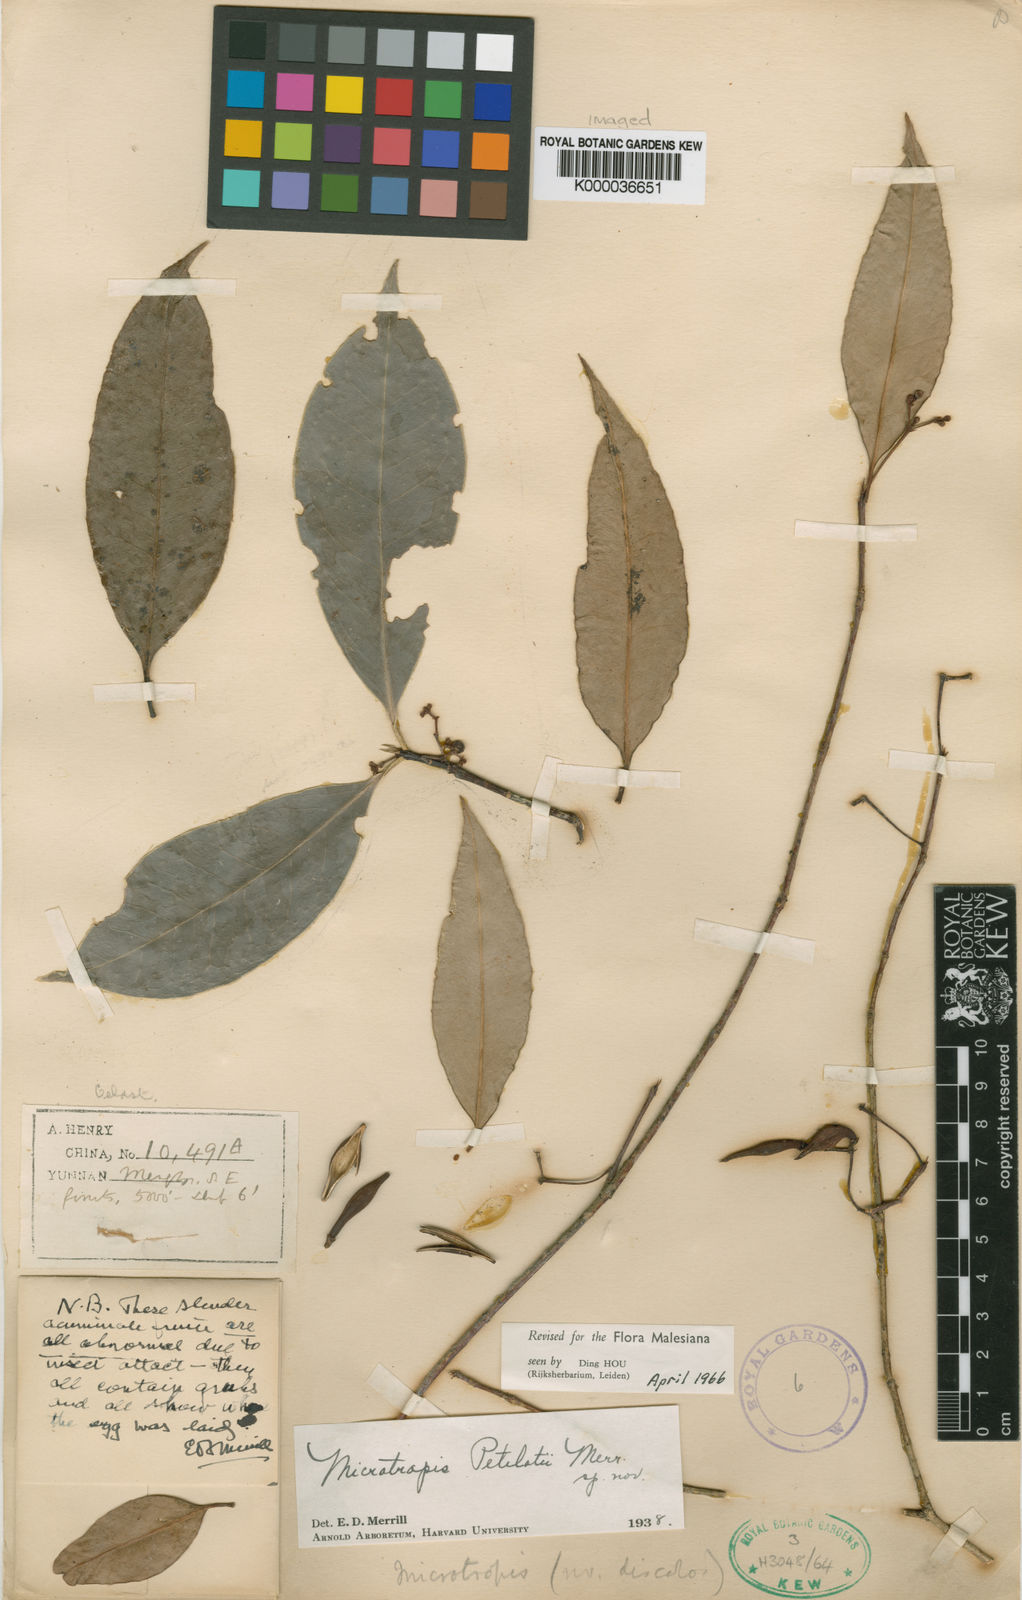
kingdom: Plantae
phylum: Tracheophyta
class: Magnoliopsida
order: Celastrales
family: Celastraceae
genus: Microtropis
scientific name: Microtropis petelotii
